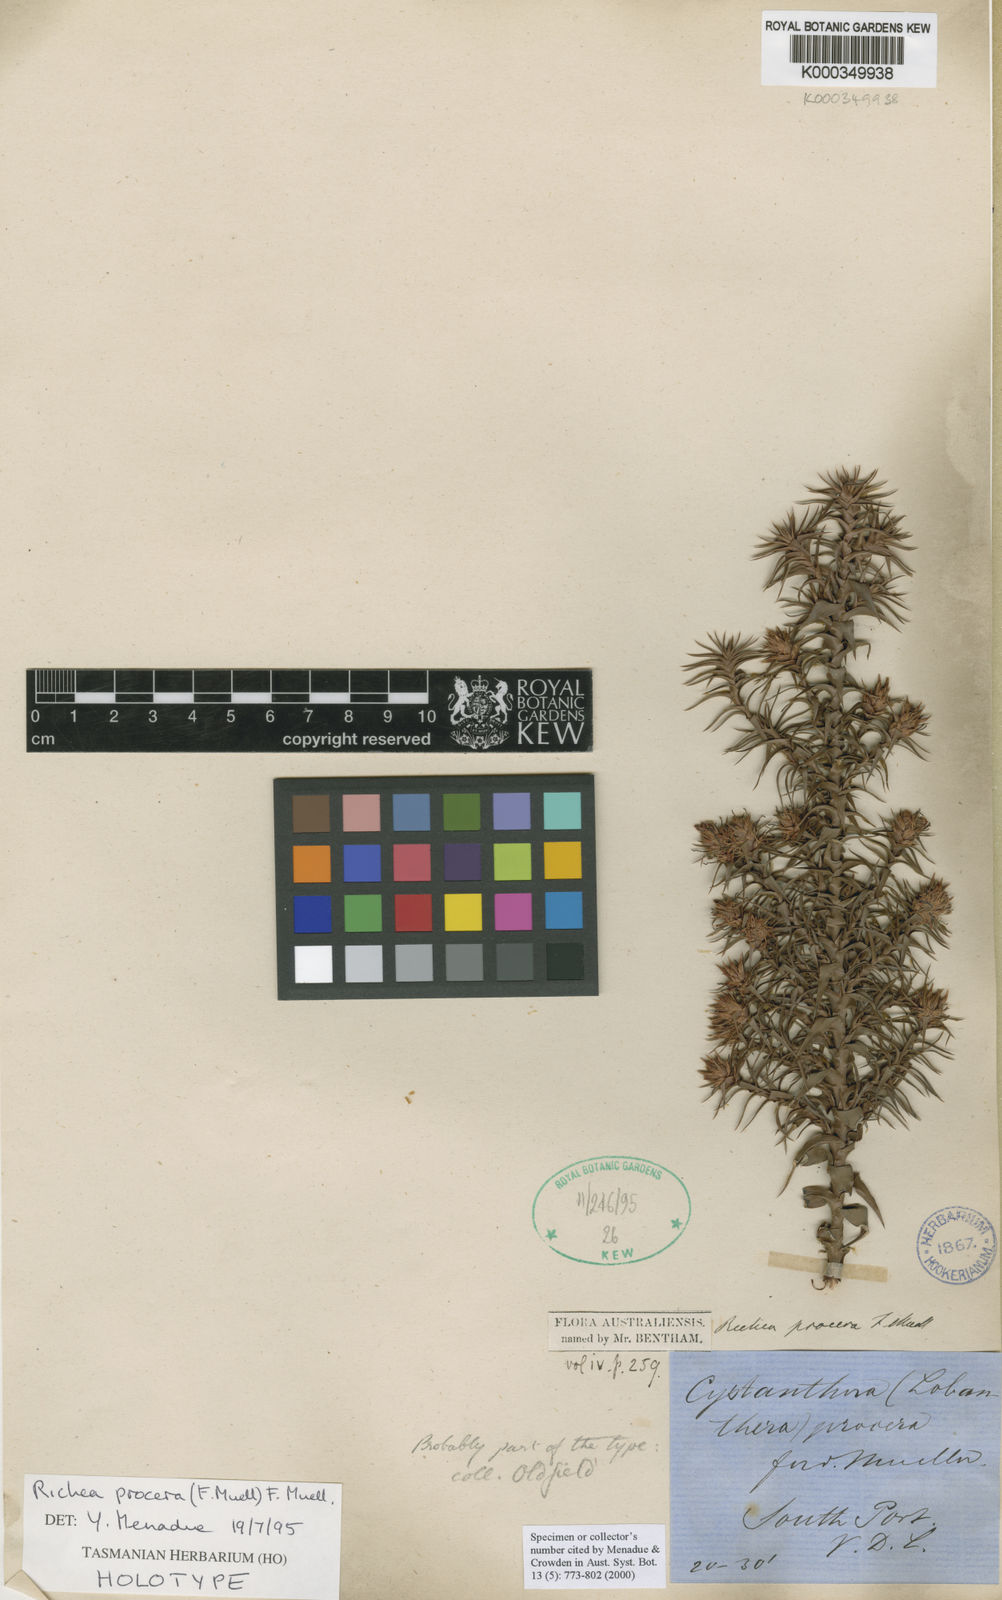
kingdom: Plantae
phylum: Tracheophyta
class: Magnoliopsida
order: Ericales
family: Ericaceae
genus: Dracophyllum
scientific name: Dracophyllum procerum
